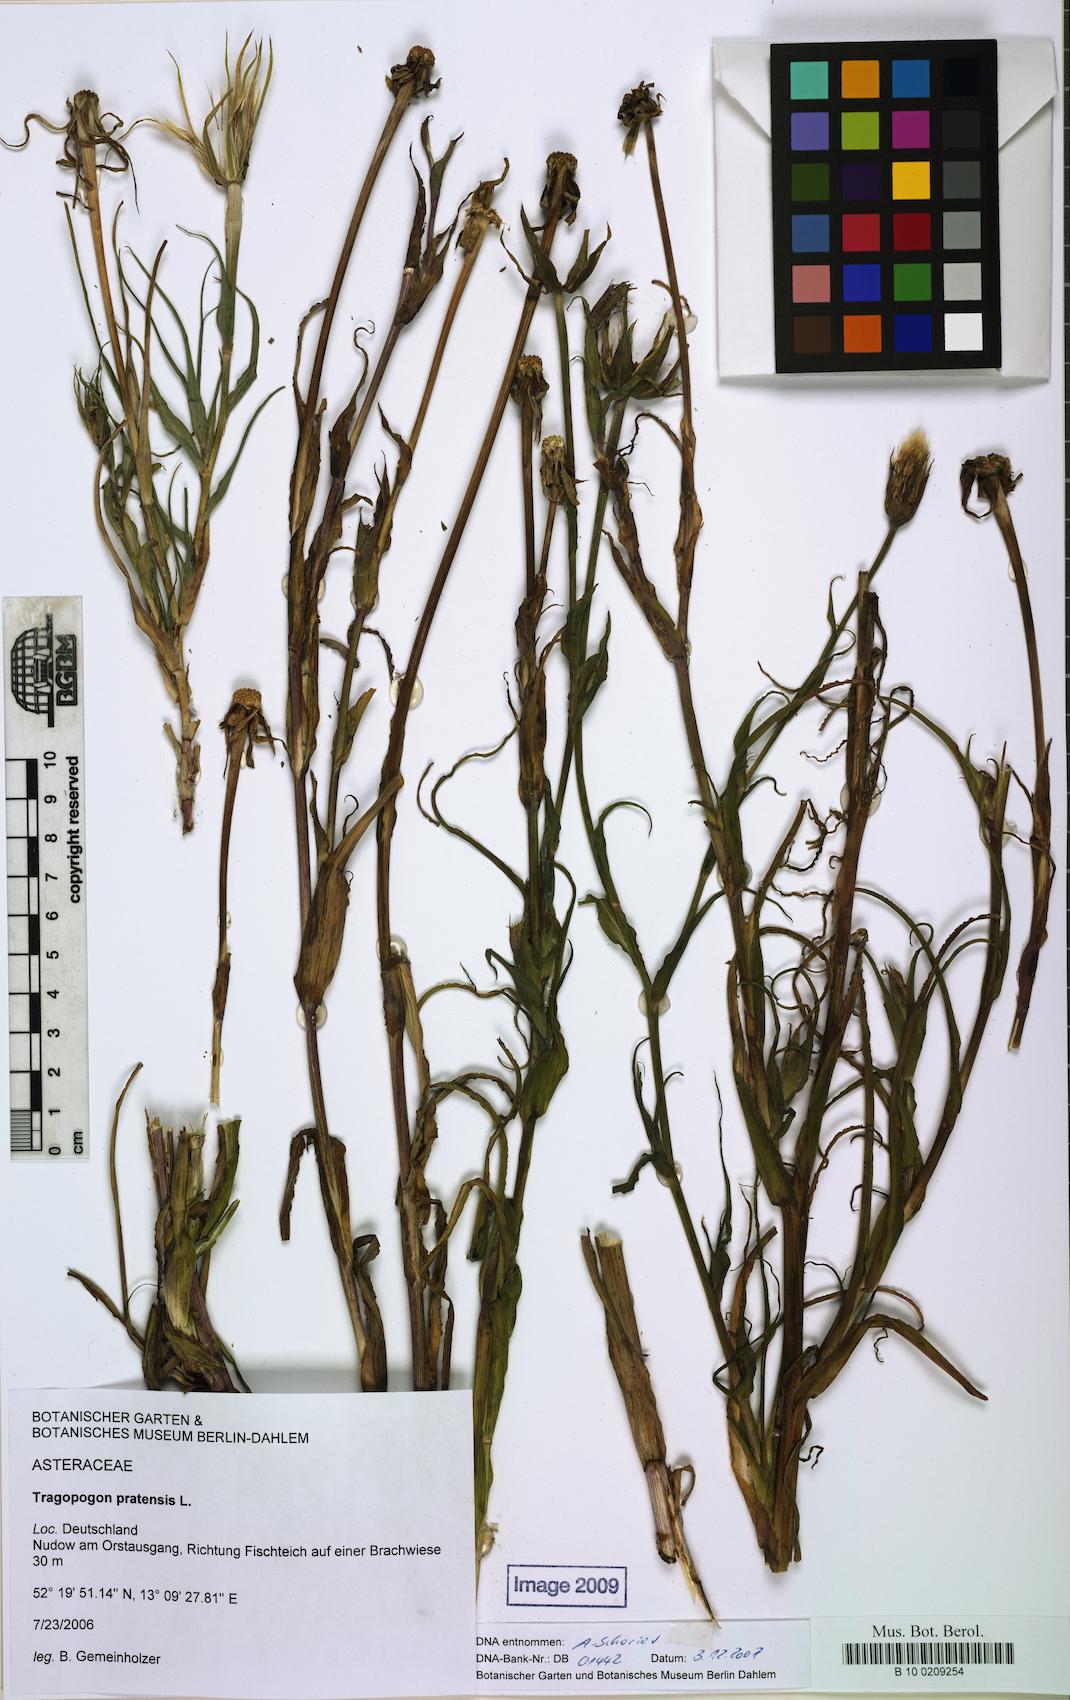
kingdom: Plantae
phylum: Tracheophyta
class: Magnoliopsida
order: Asterales
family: Asteraceae
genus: Tragopogon
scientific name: Tragopogon pratensis
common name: Goat's-beard
